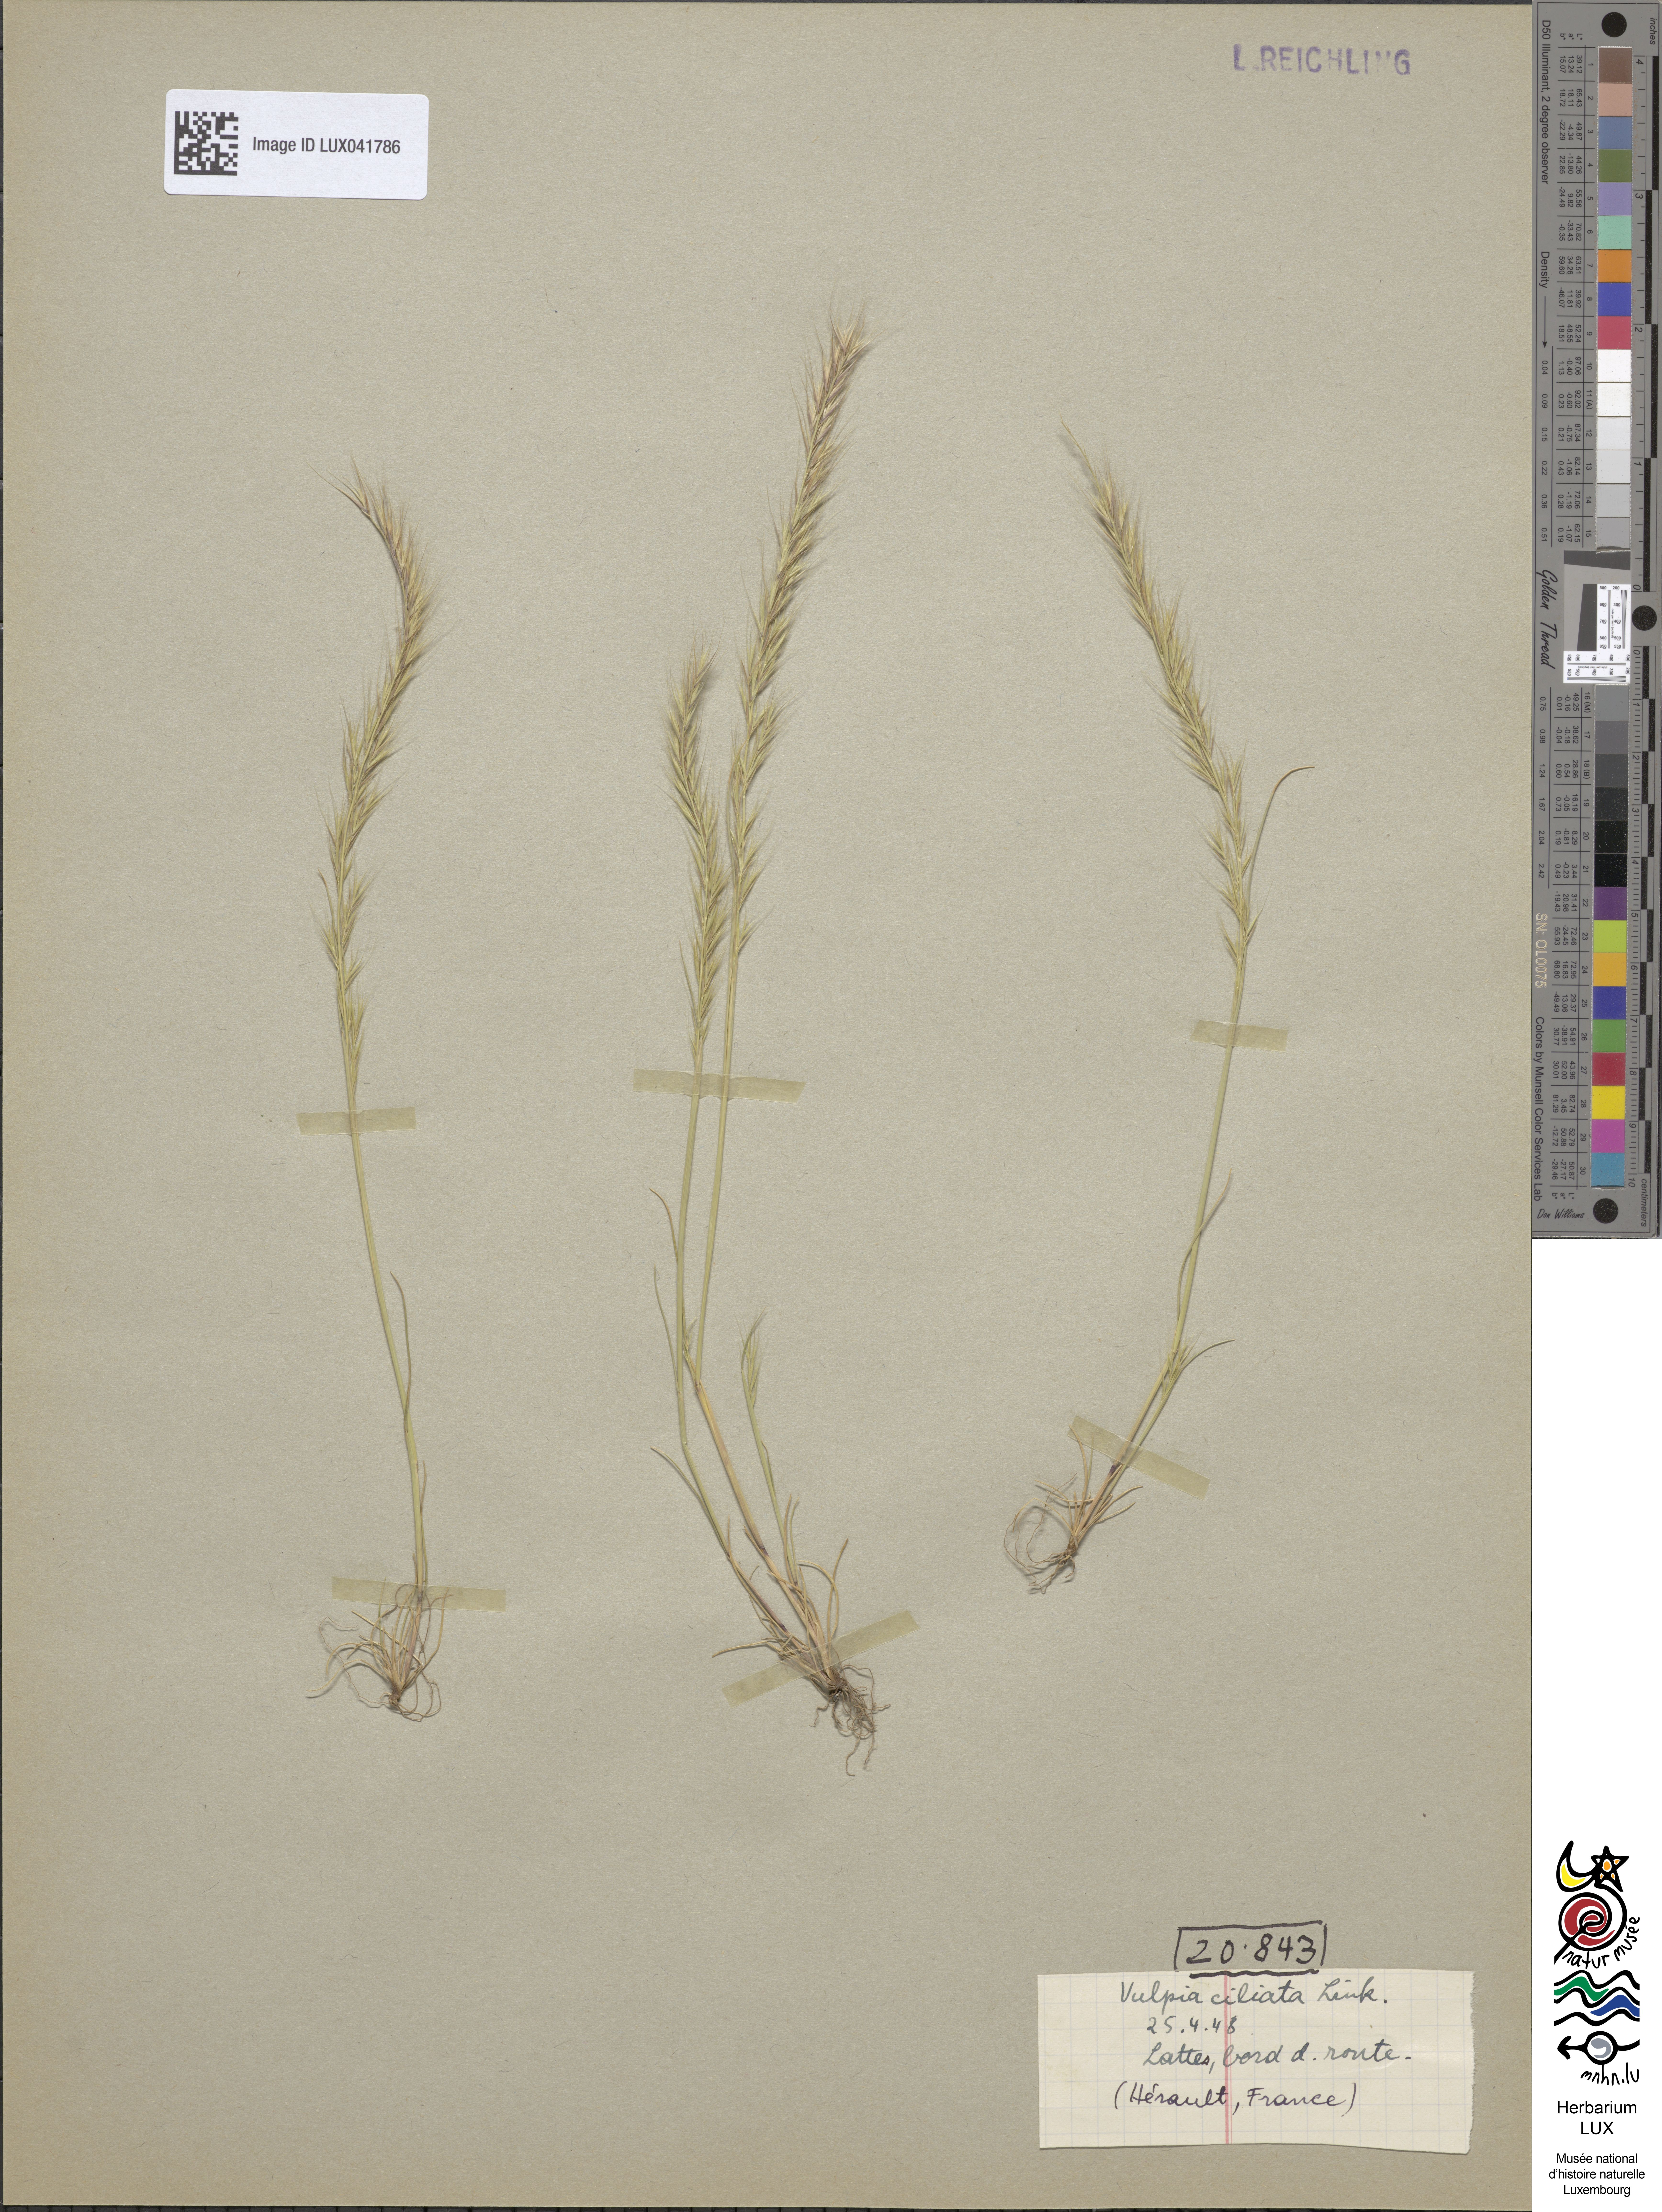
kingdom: Plantae
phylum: Tracheophyta
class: Liliopsida
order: Poales
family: Poaceae
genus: Festuca
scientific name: Festuca ambigua
